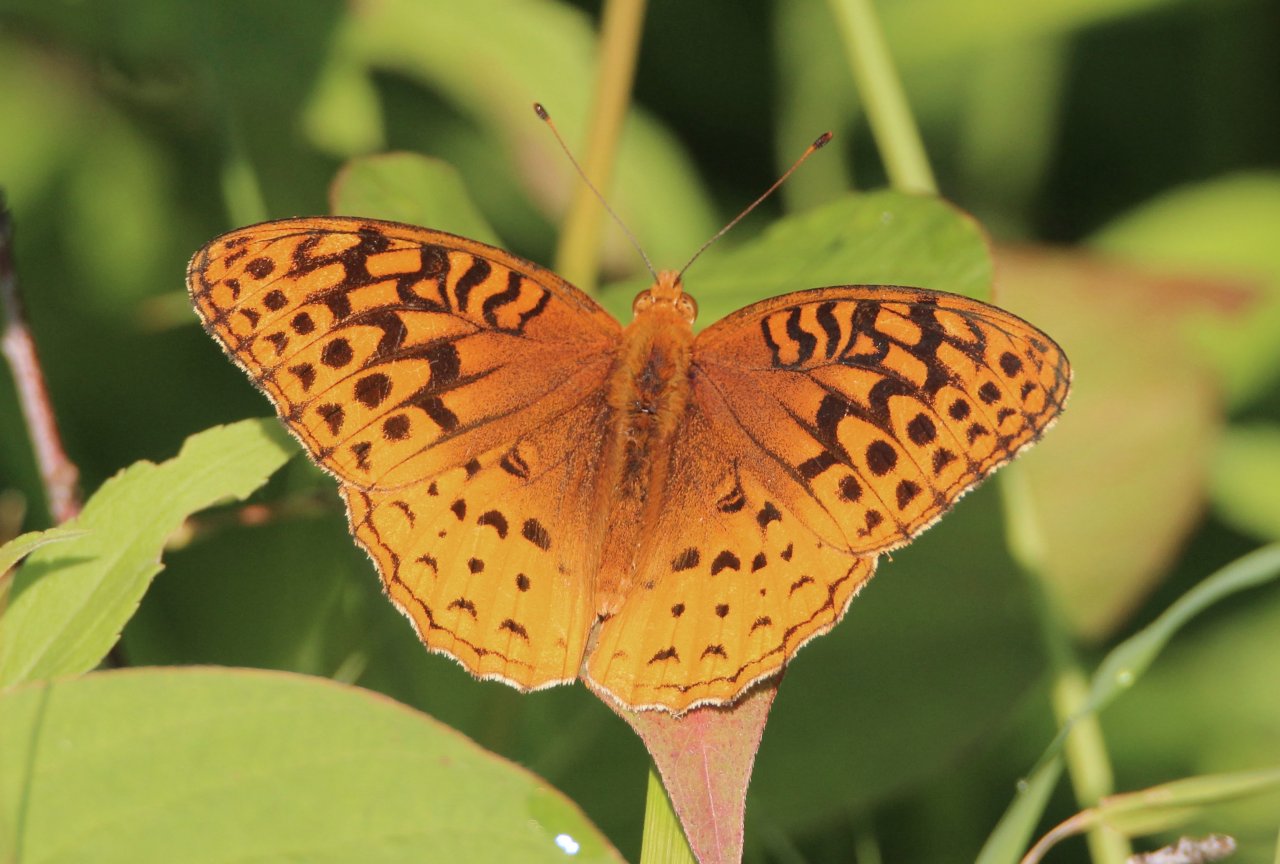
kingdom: Animalia
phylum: Arthropoda
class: Insecta
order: Lepidoptera
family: Nymphalidae
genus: Speyeria
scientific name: Speyeria cybele
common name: Great Spangled Fritillary
